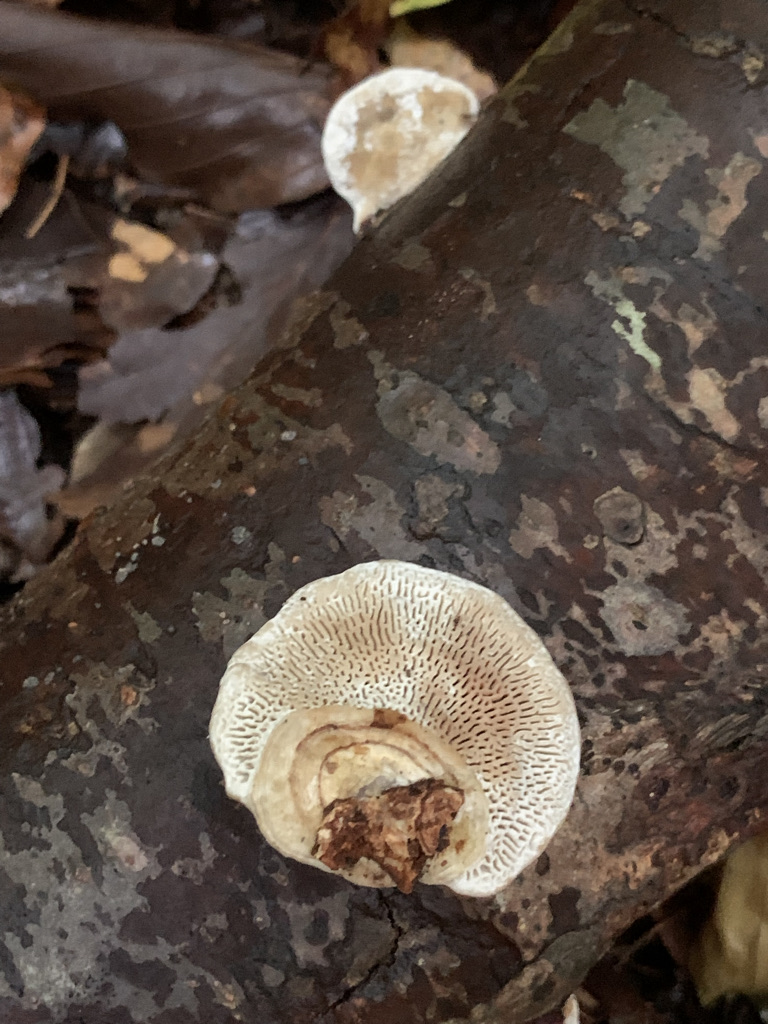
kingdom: Fungi
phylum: Basidiomycota
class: Agaricomycetes
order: Polyporales
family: Polyporaceae
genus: Daedaleopsis
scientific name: Daedaleopsis confragosa
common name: rødmende læderporesvamp
